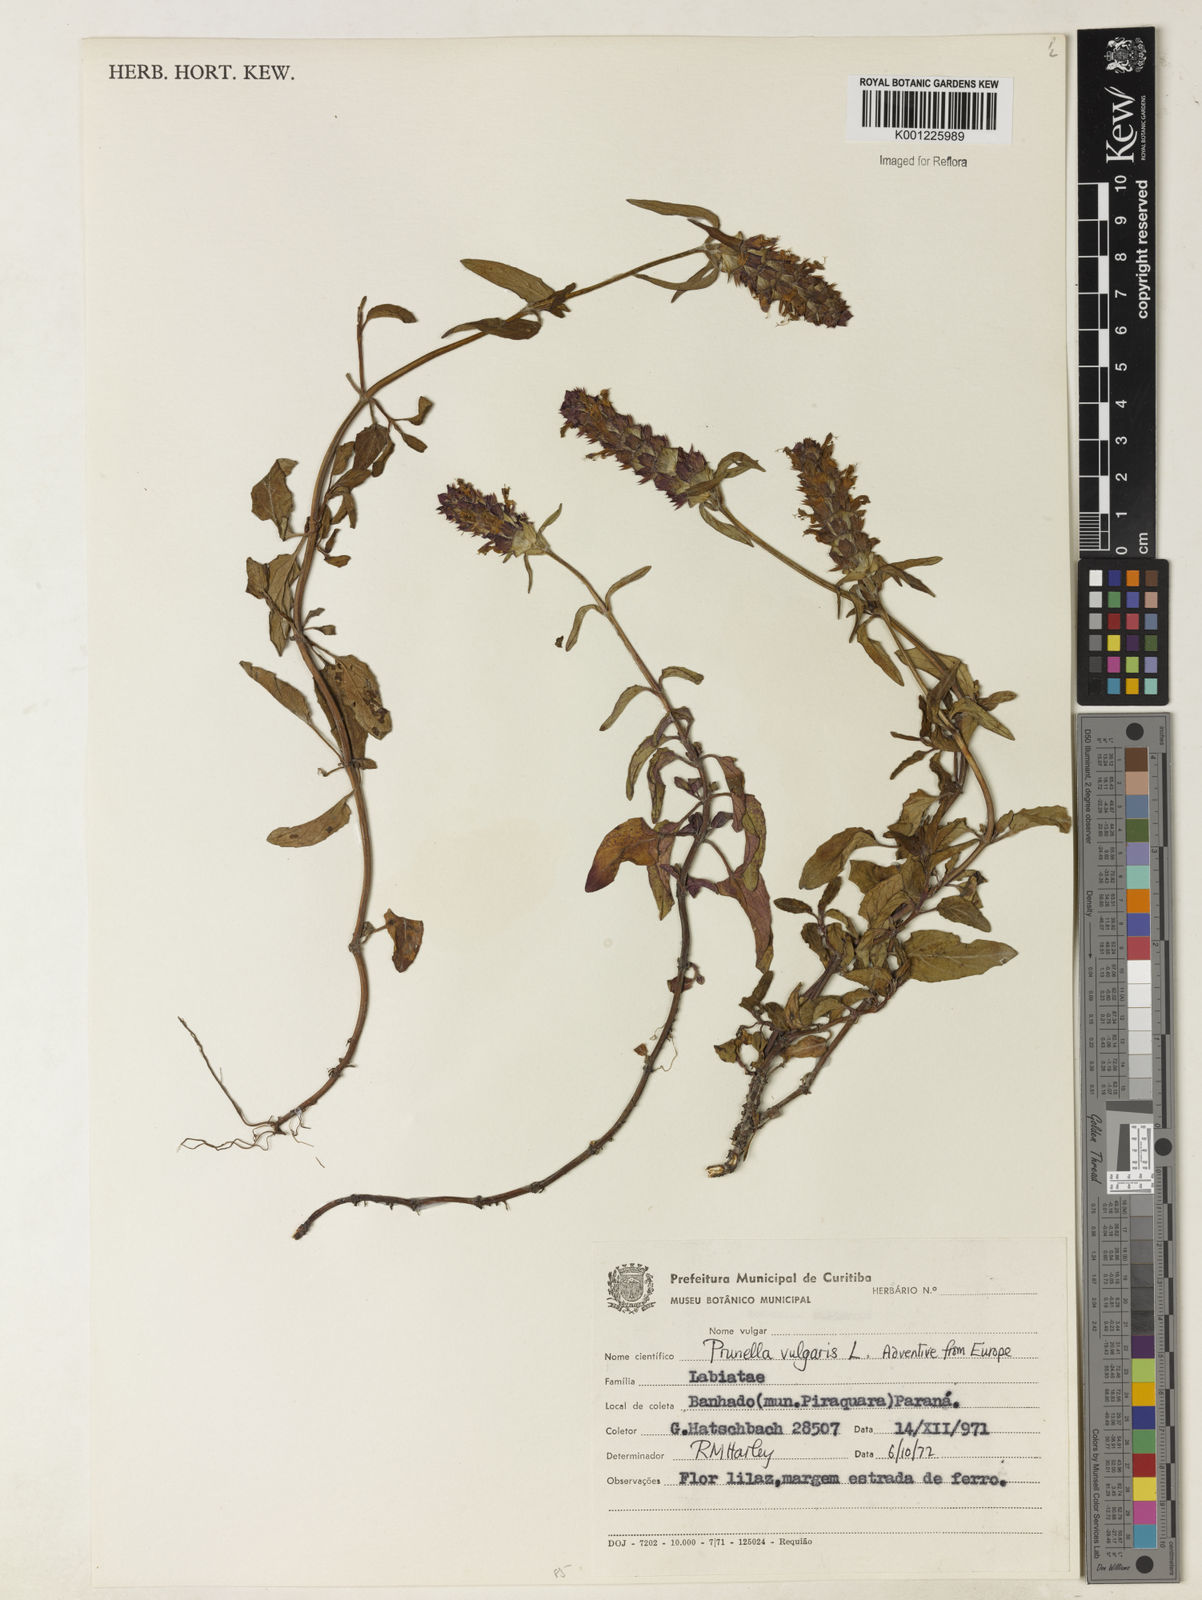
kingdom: Plantae
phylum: Tracheophyta
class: Magnoliopsida
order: Lamiales
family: Lamiaceae
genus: Prunella
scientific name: Prunella vulgaris
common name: Heal-all
